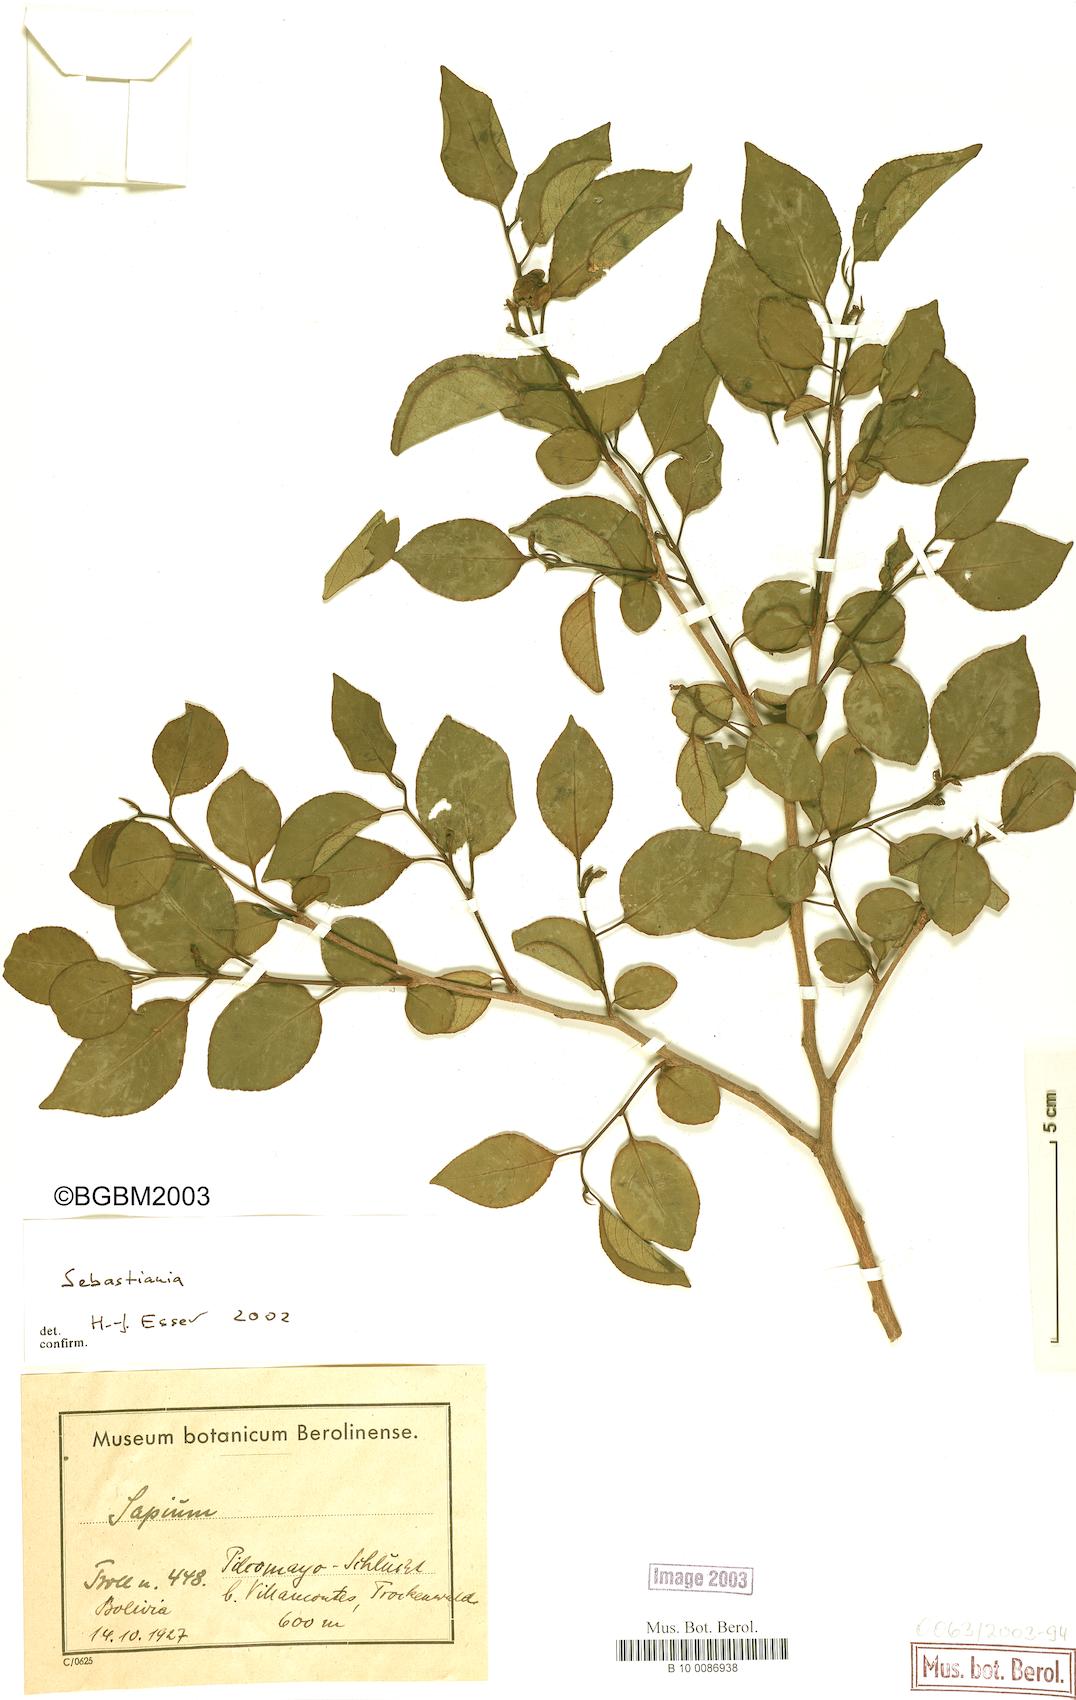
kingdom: Plantae
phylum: Tracheophyta
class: Magnoliopsida
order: Malpighiales
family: Euphorbiaceae
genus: Sebastiania
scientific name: Sebastiania
